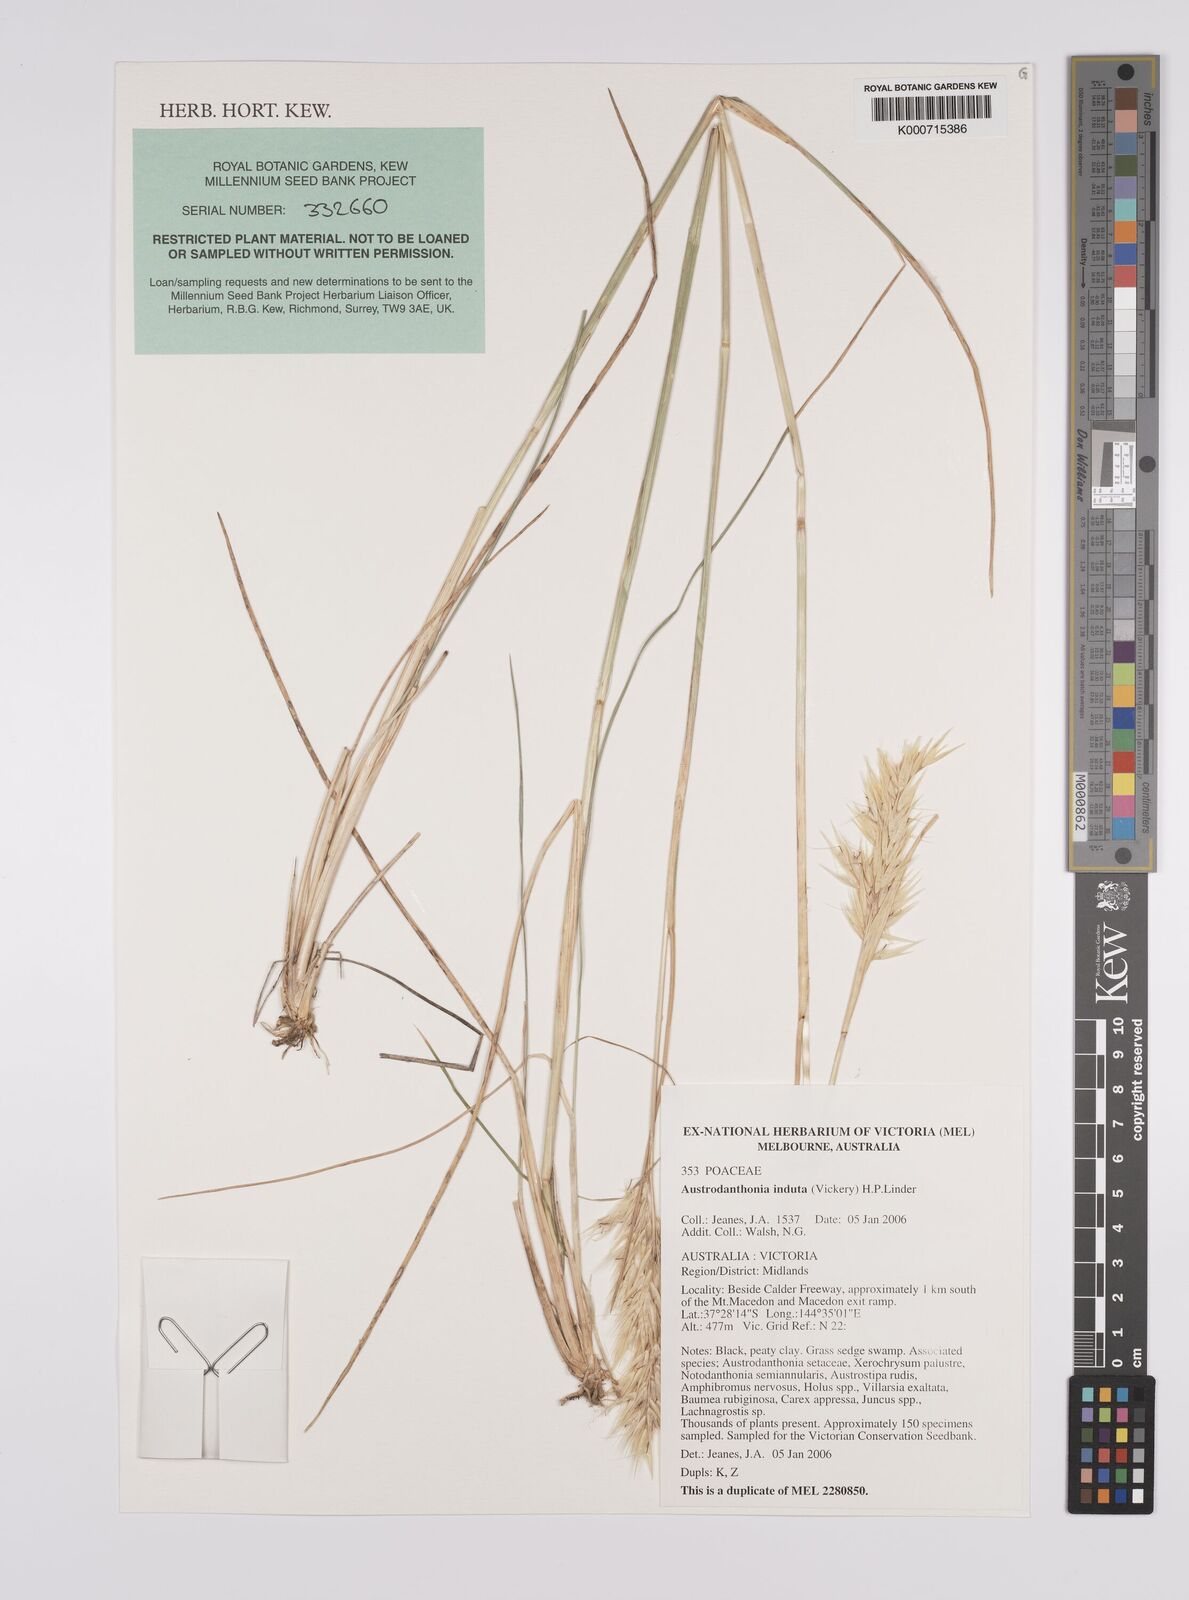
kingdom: Plantae
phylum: Tracheophyta
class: Liliopsida
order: Poales
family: Poaceae
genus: Rytidosperma
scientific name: Rytidosperma indutum
